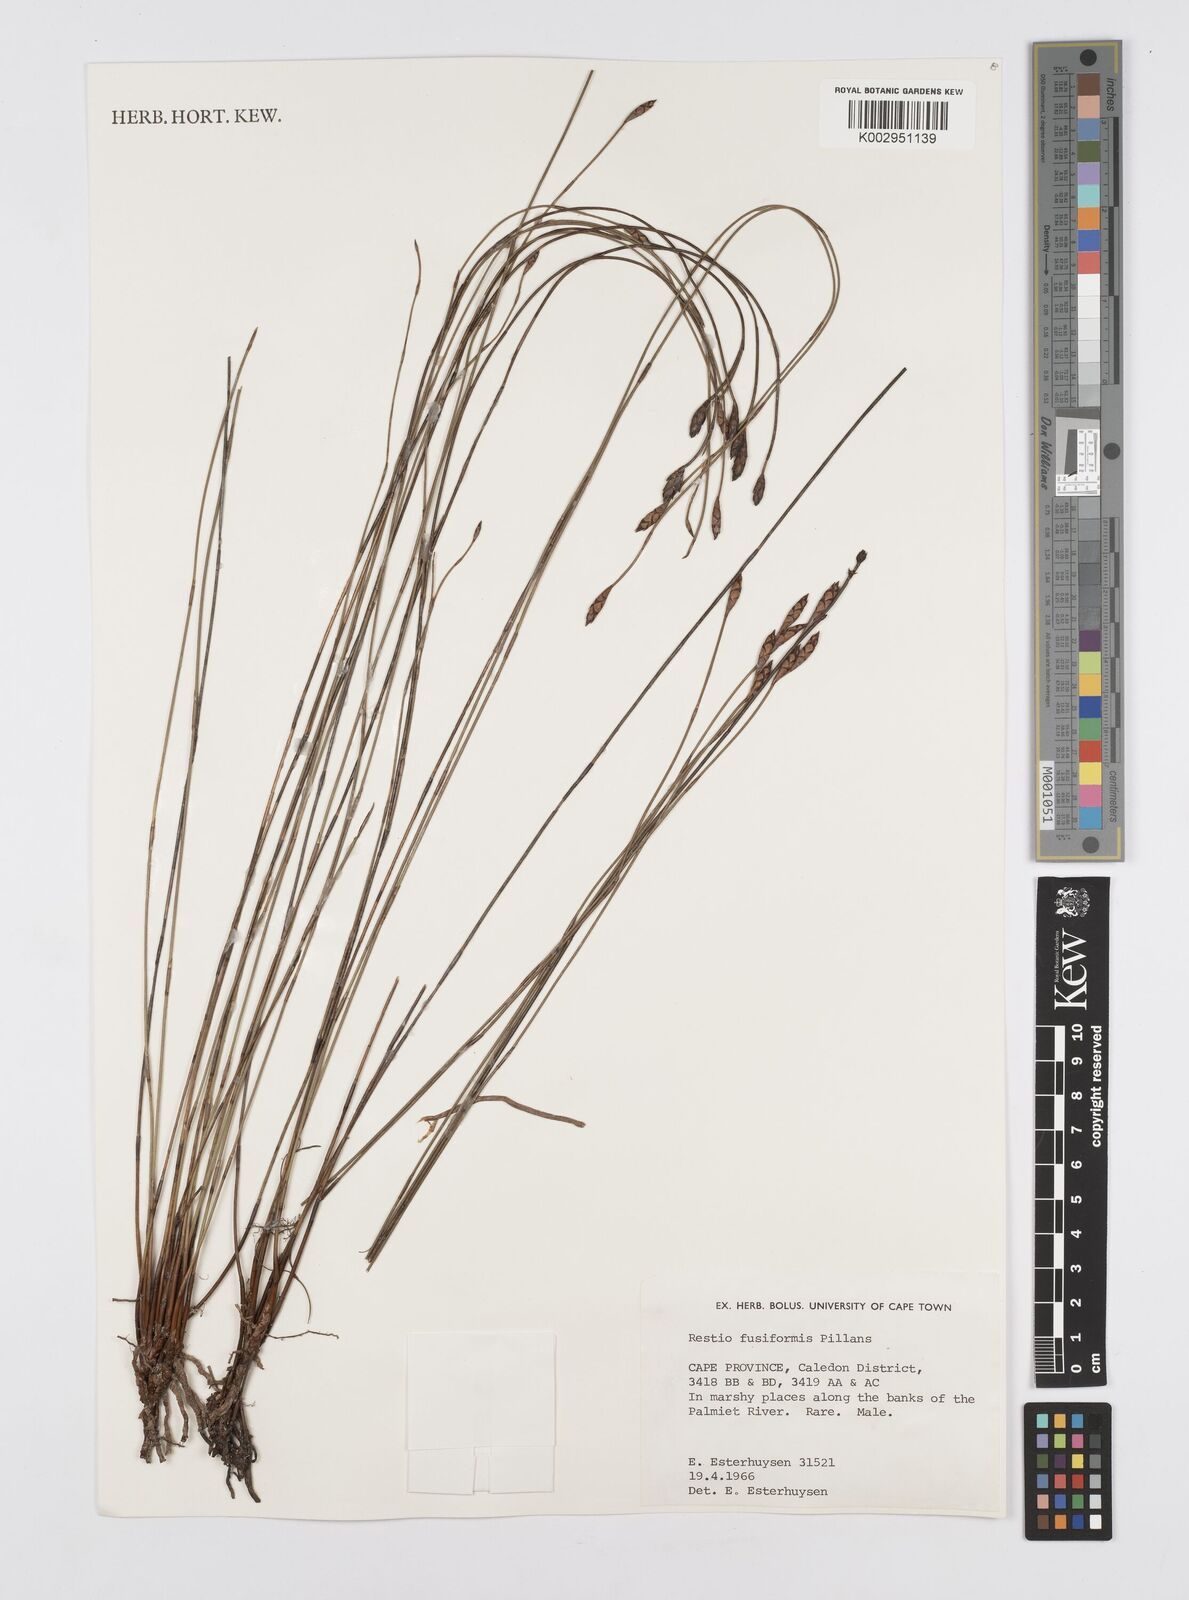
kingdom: Plantae
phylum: Tracheophyta
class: Liliopsida
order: Poales
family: Restionaceae
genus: Restio
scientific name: Restio fusiformis
